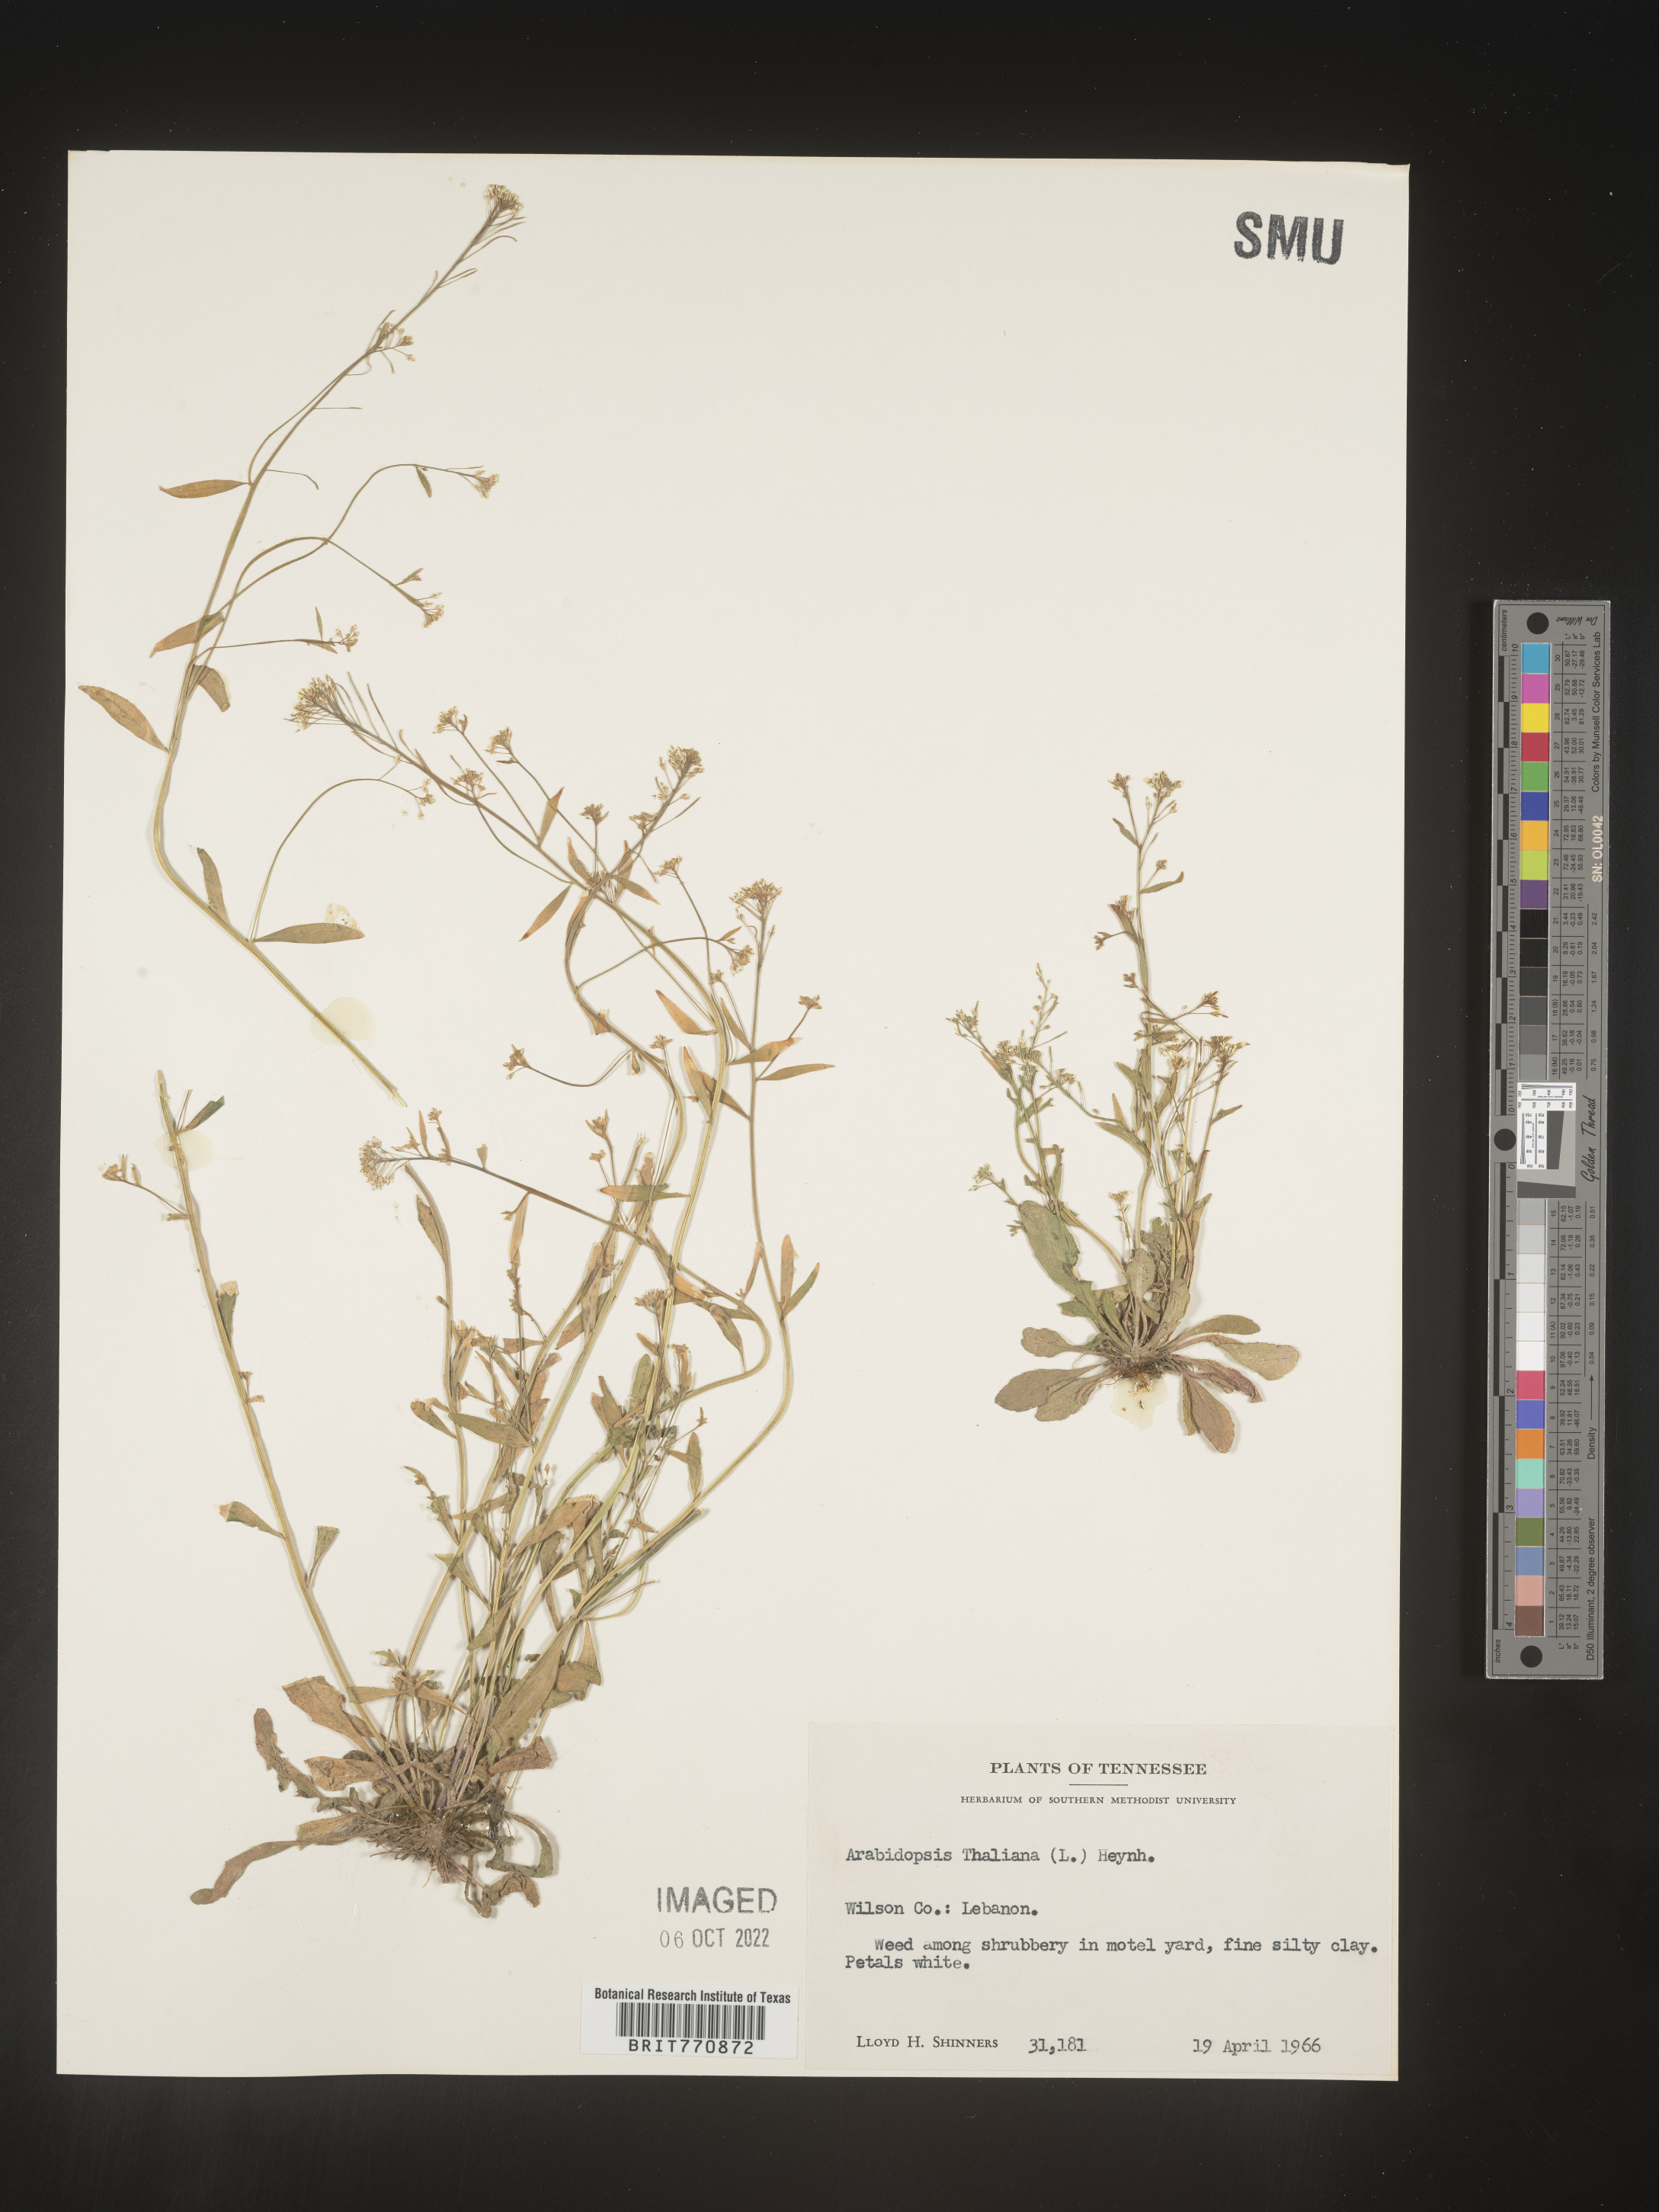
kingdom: Plantae
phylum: Tracheophyta
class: Magnoliopsida
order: Brassicales
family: Brassicaceae
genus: Arabidopsis
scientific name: Arabidopsis thaliana
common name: Thale cress
